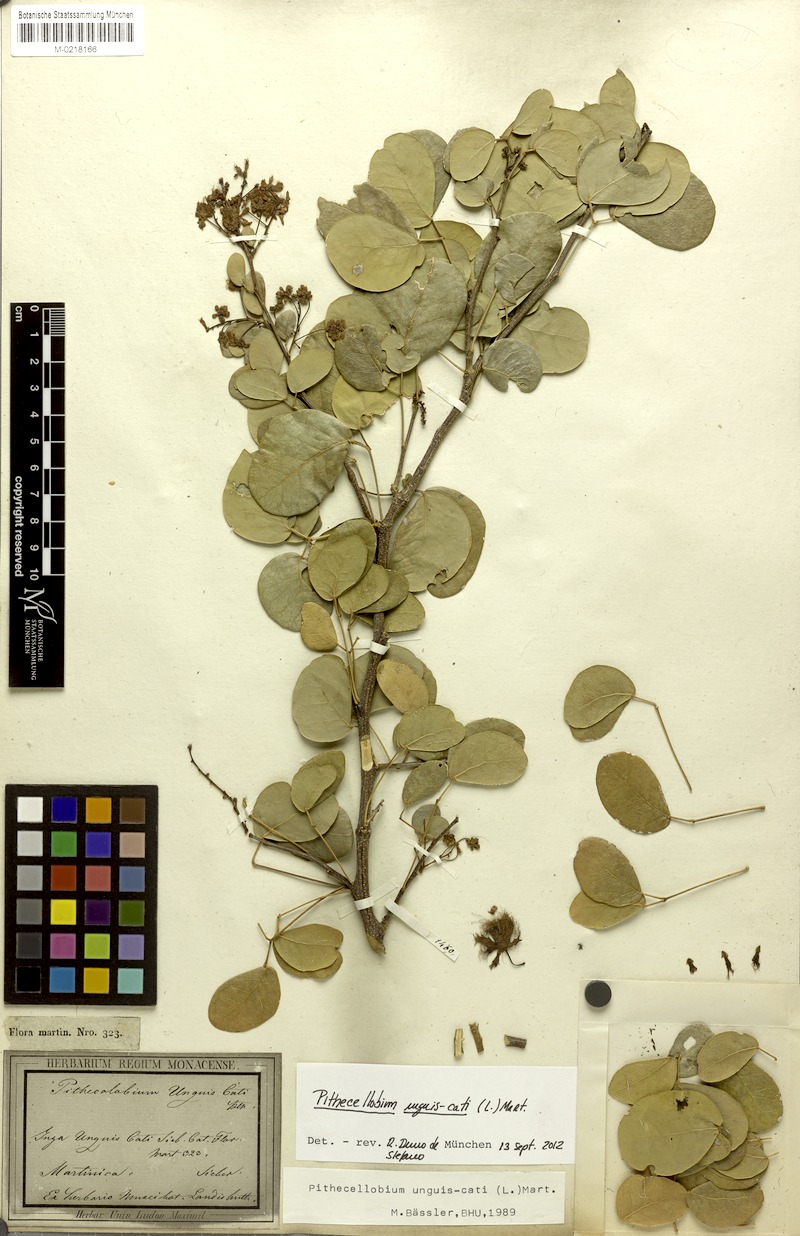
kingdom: Plantae
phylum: Tracheophyta
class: Magnoliopsida
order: Fabales
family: Fabaceae
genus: Pithecellobium
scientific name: Pithecellobium unguis-cati
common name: Cat's-claw
